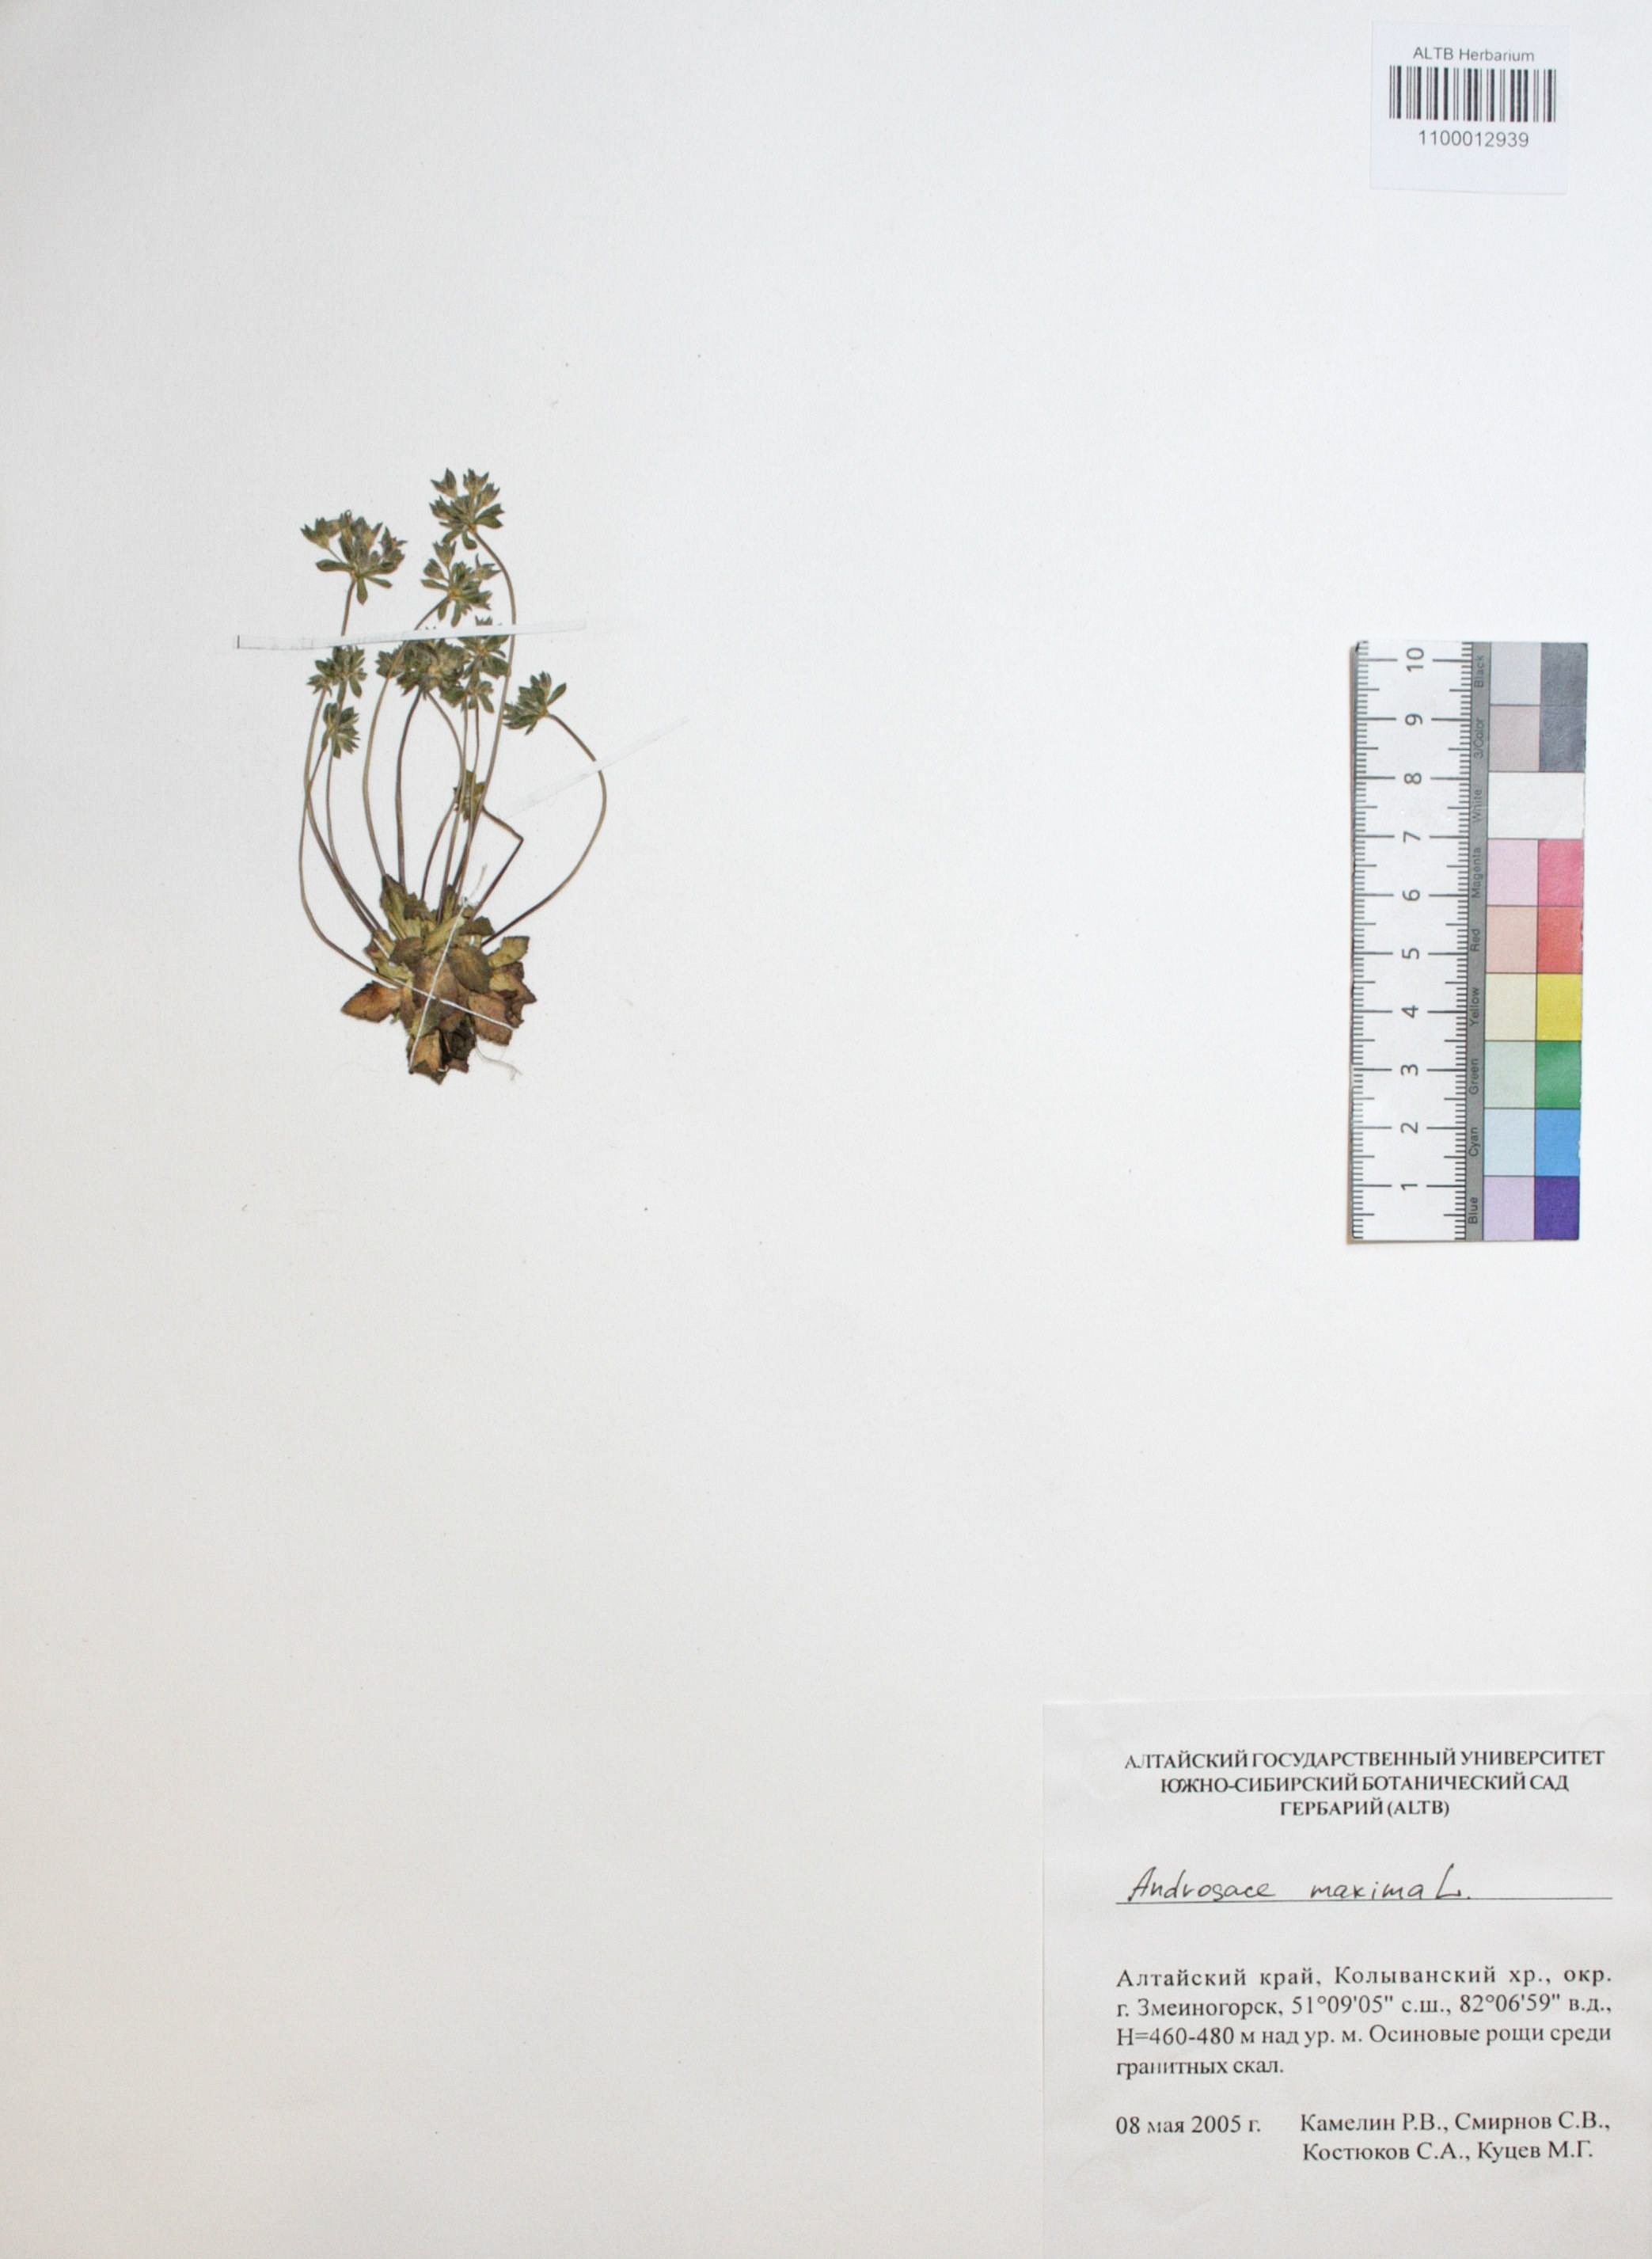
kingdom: Plantae
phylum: Tracheophyta
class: Magnoliopsida
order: Ericales
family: Primulaceae
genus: Androsace
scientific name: Androsace maxima
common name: Annual androsace
